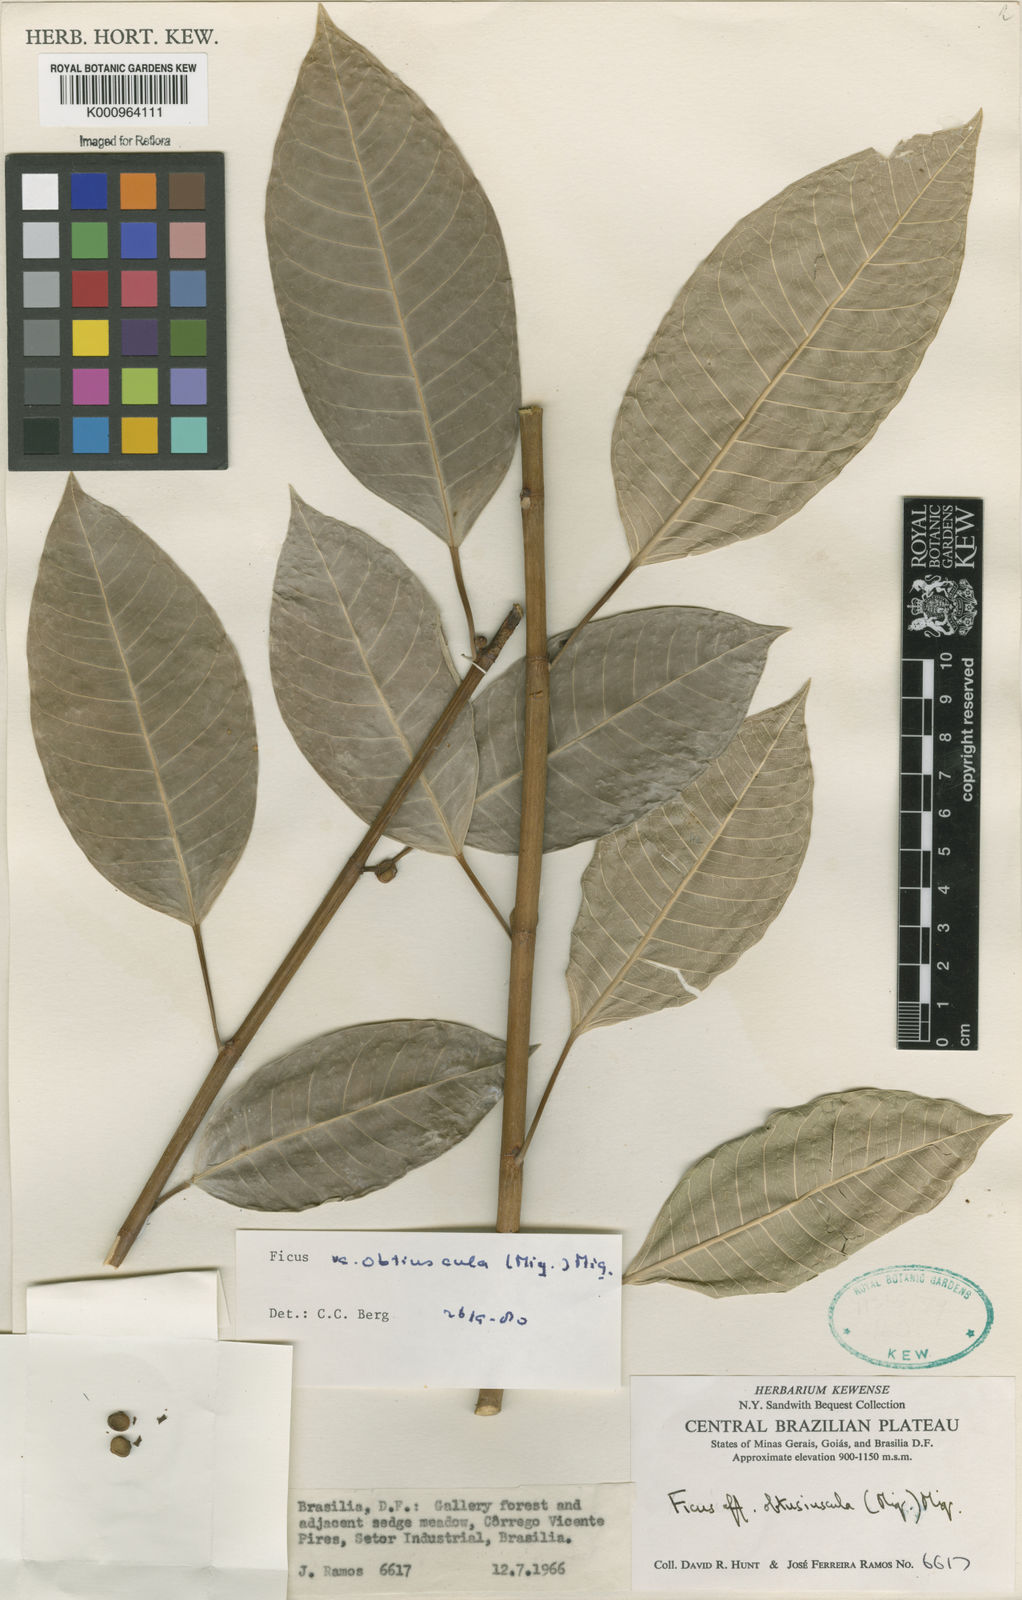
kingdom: Plantae
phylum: Tracheophyta
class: Magnoliopsida
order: Rosales
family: Moraceae
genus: Ficus
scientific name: Ficus obtusiuscula
